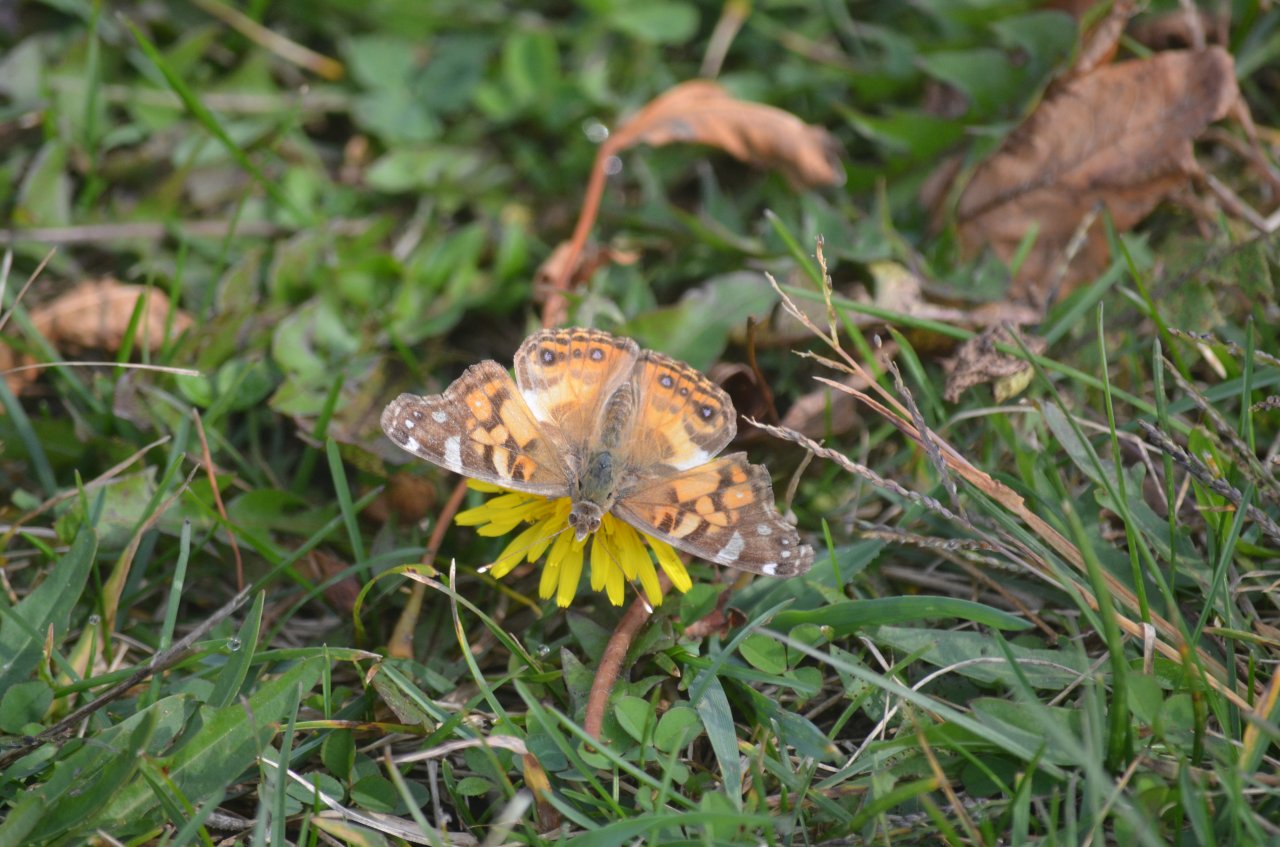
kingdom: Animalia
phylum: Arthropoda
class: Insecta
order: Lepidoptera
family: Nymphalidae
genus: Vanessa
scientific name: Vanessa virginiensis
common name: American Lady
